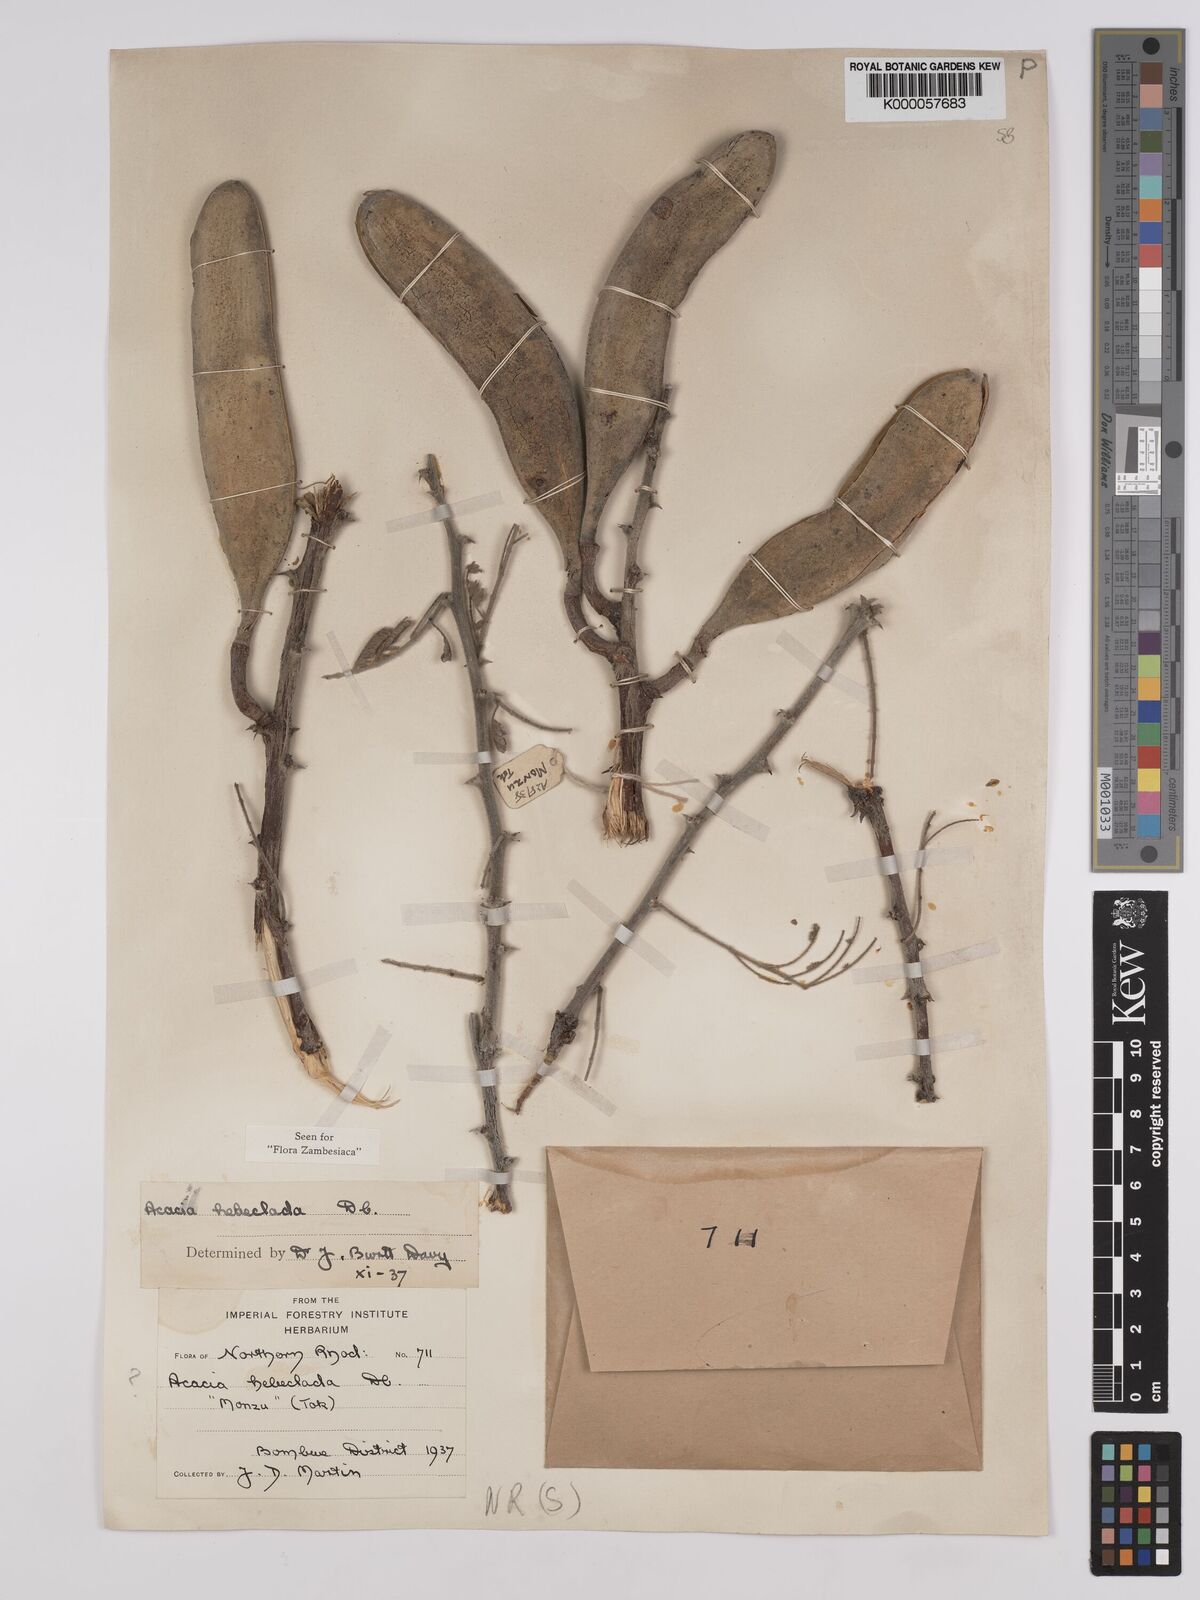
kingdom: Plantae
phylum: Tracheophyta
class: Magnoliopsida
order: Fabales
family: Fabaceae
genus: Vachellia
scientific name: Vachellia hebeclada
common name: Candle thorn
